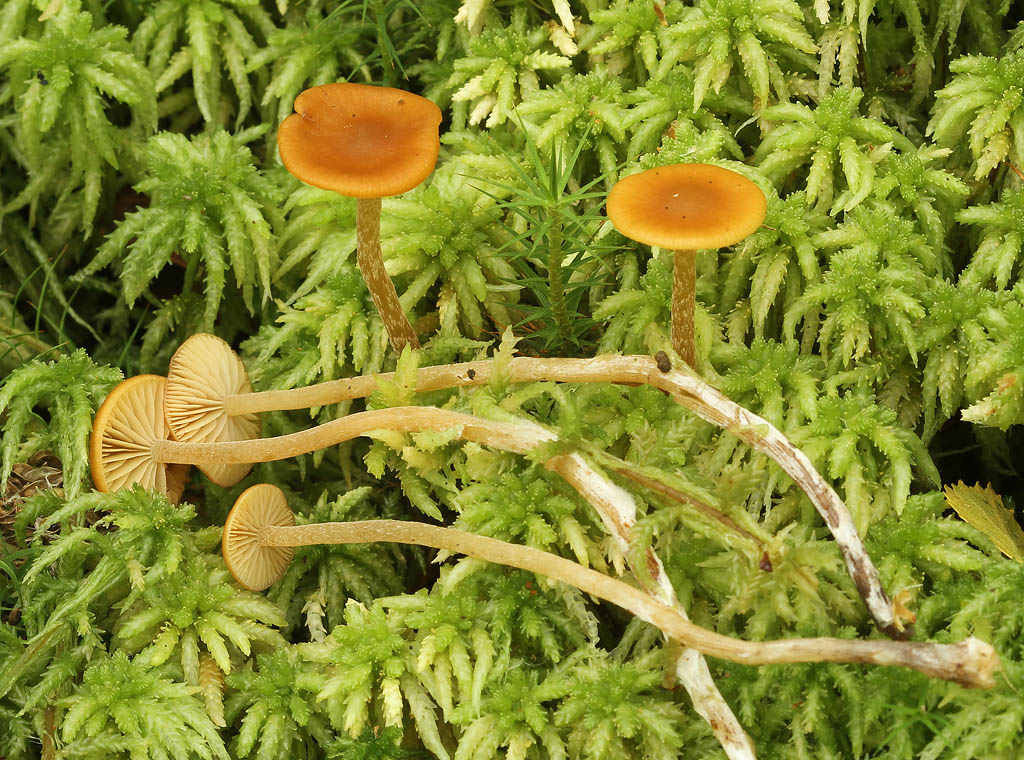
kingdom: Fungi
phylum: Basidiomycota
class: Agaricomycetes
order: Agaricales
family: Hymenogastraceae
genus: Galerina
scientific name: Galerina hybrida
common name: hængesæk-hjelmhat
